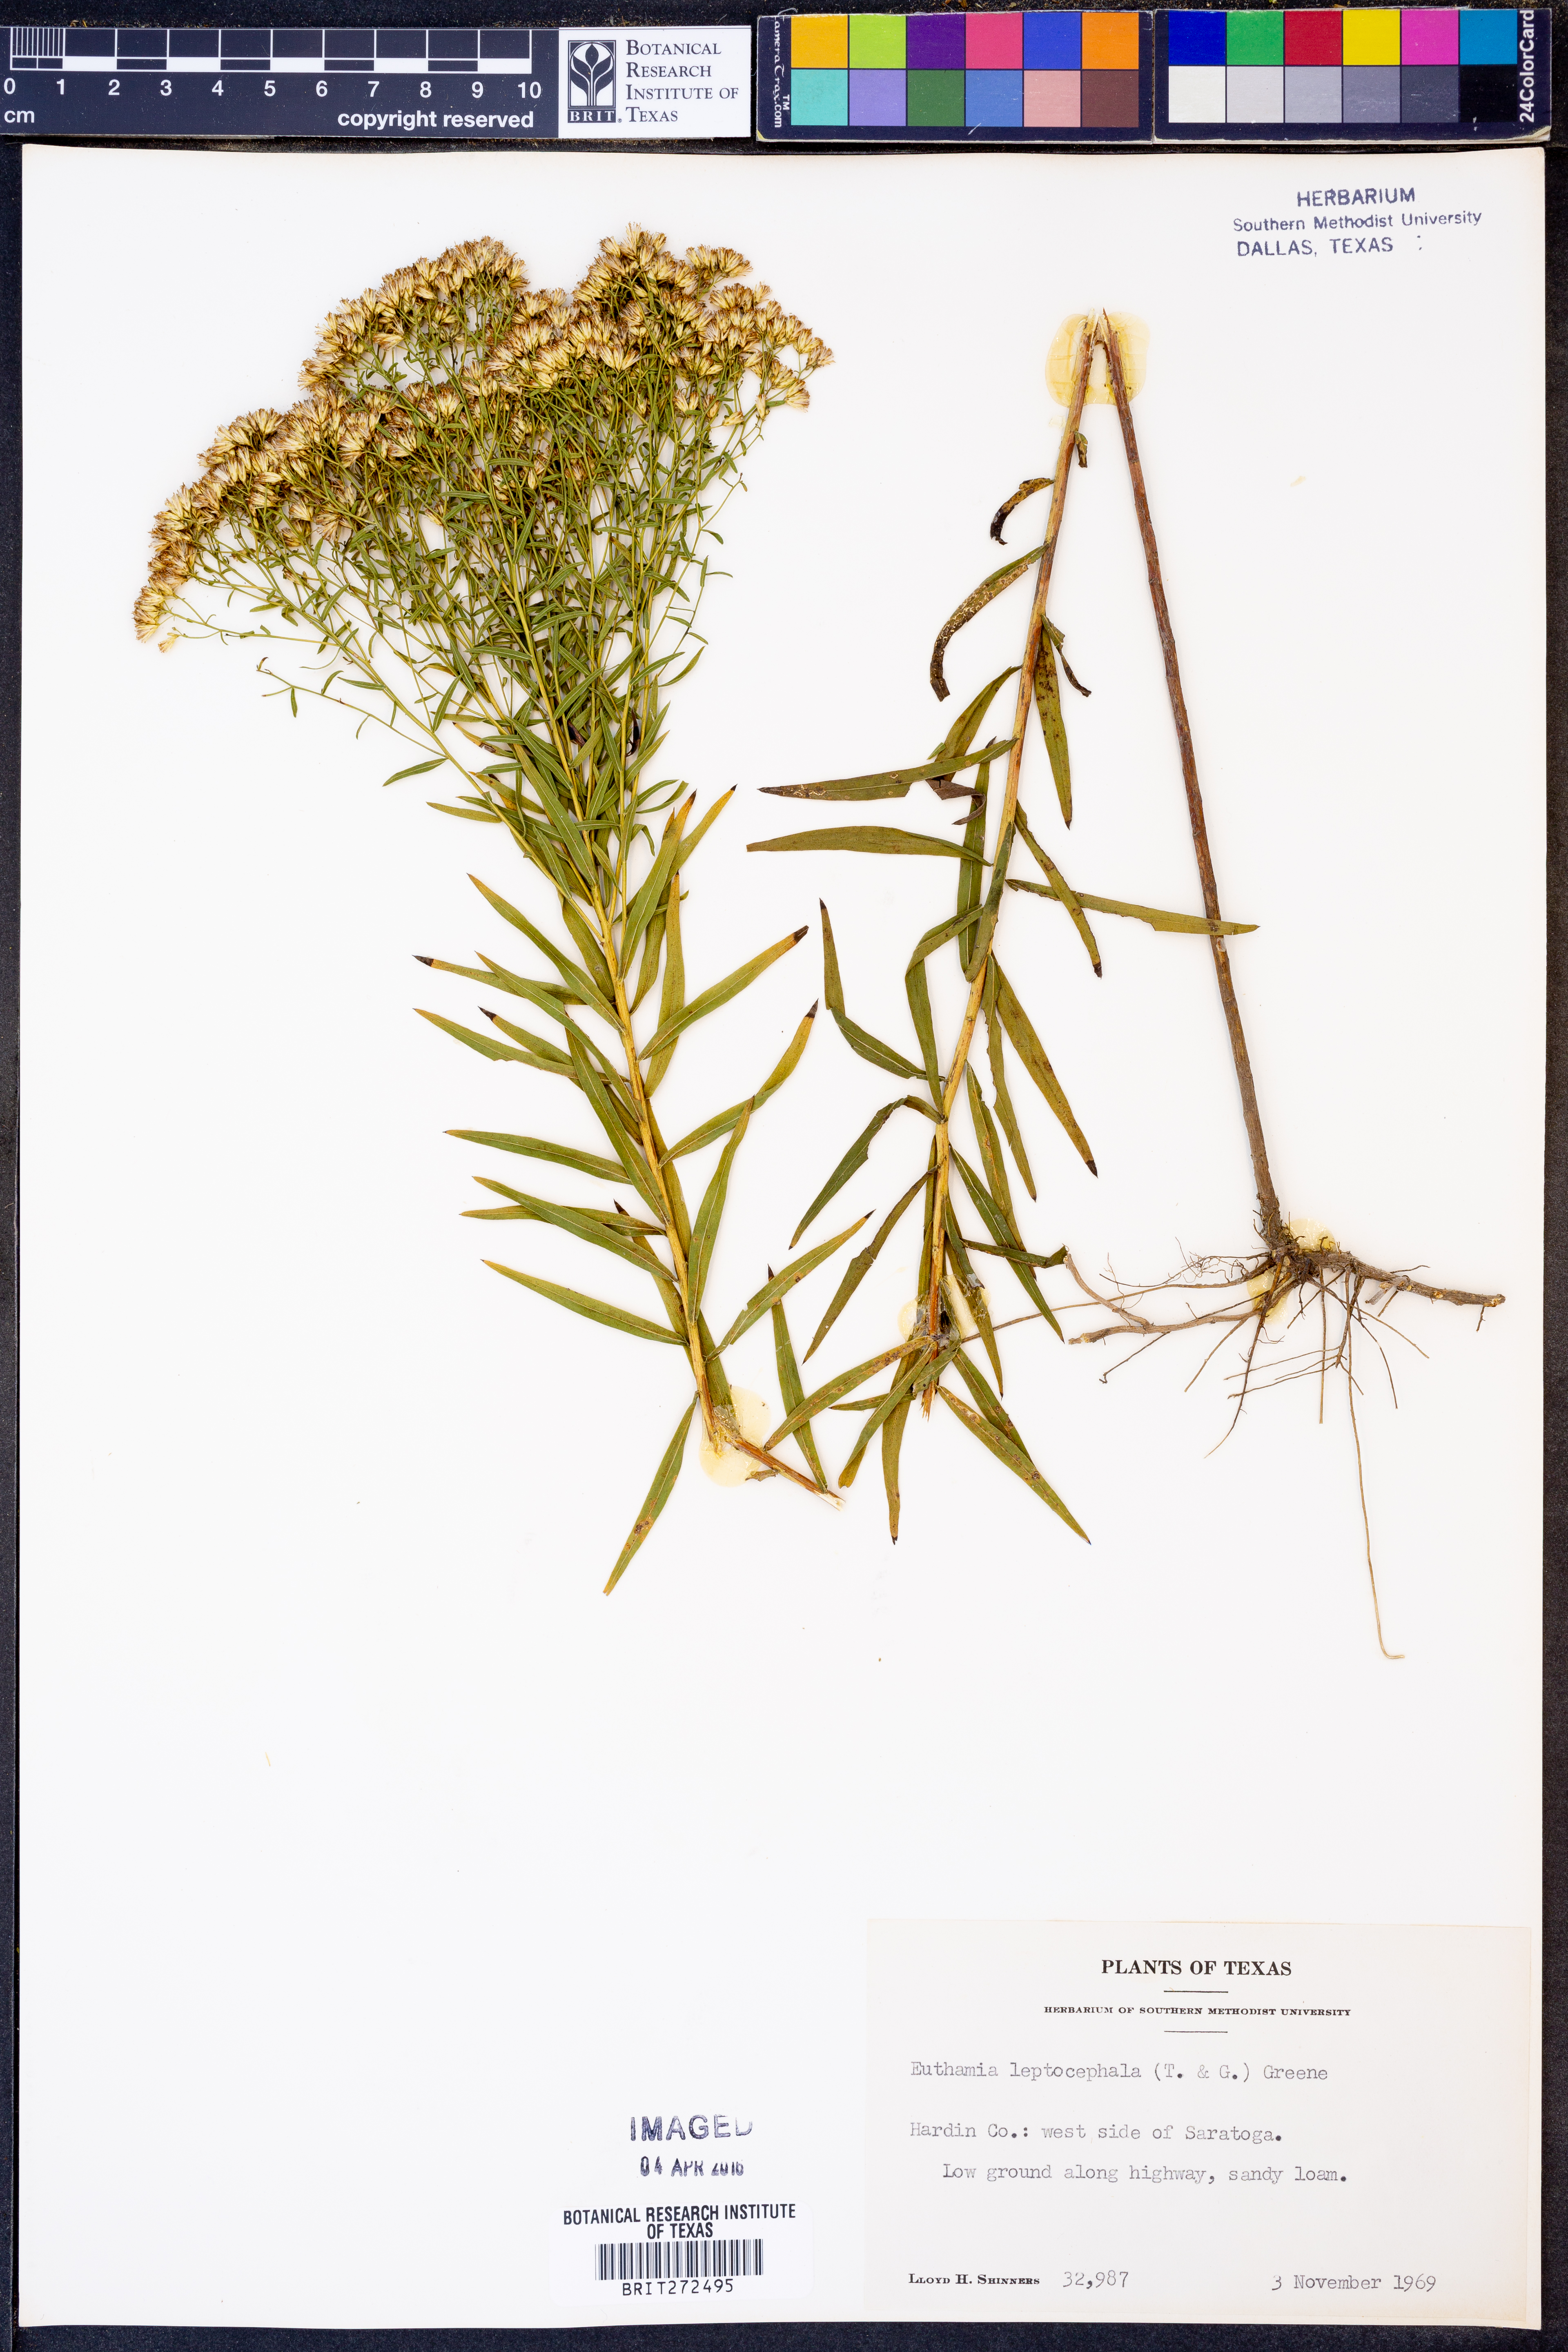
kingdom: Plantae
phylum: Tracheophyta
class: Magnoliopsida
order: Asterales
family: Asteraceae
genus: Croptilon
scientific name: Croptilon divaricatum
